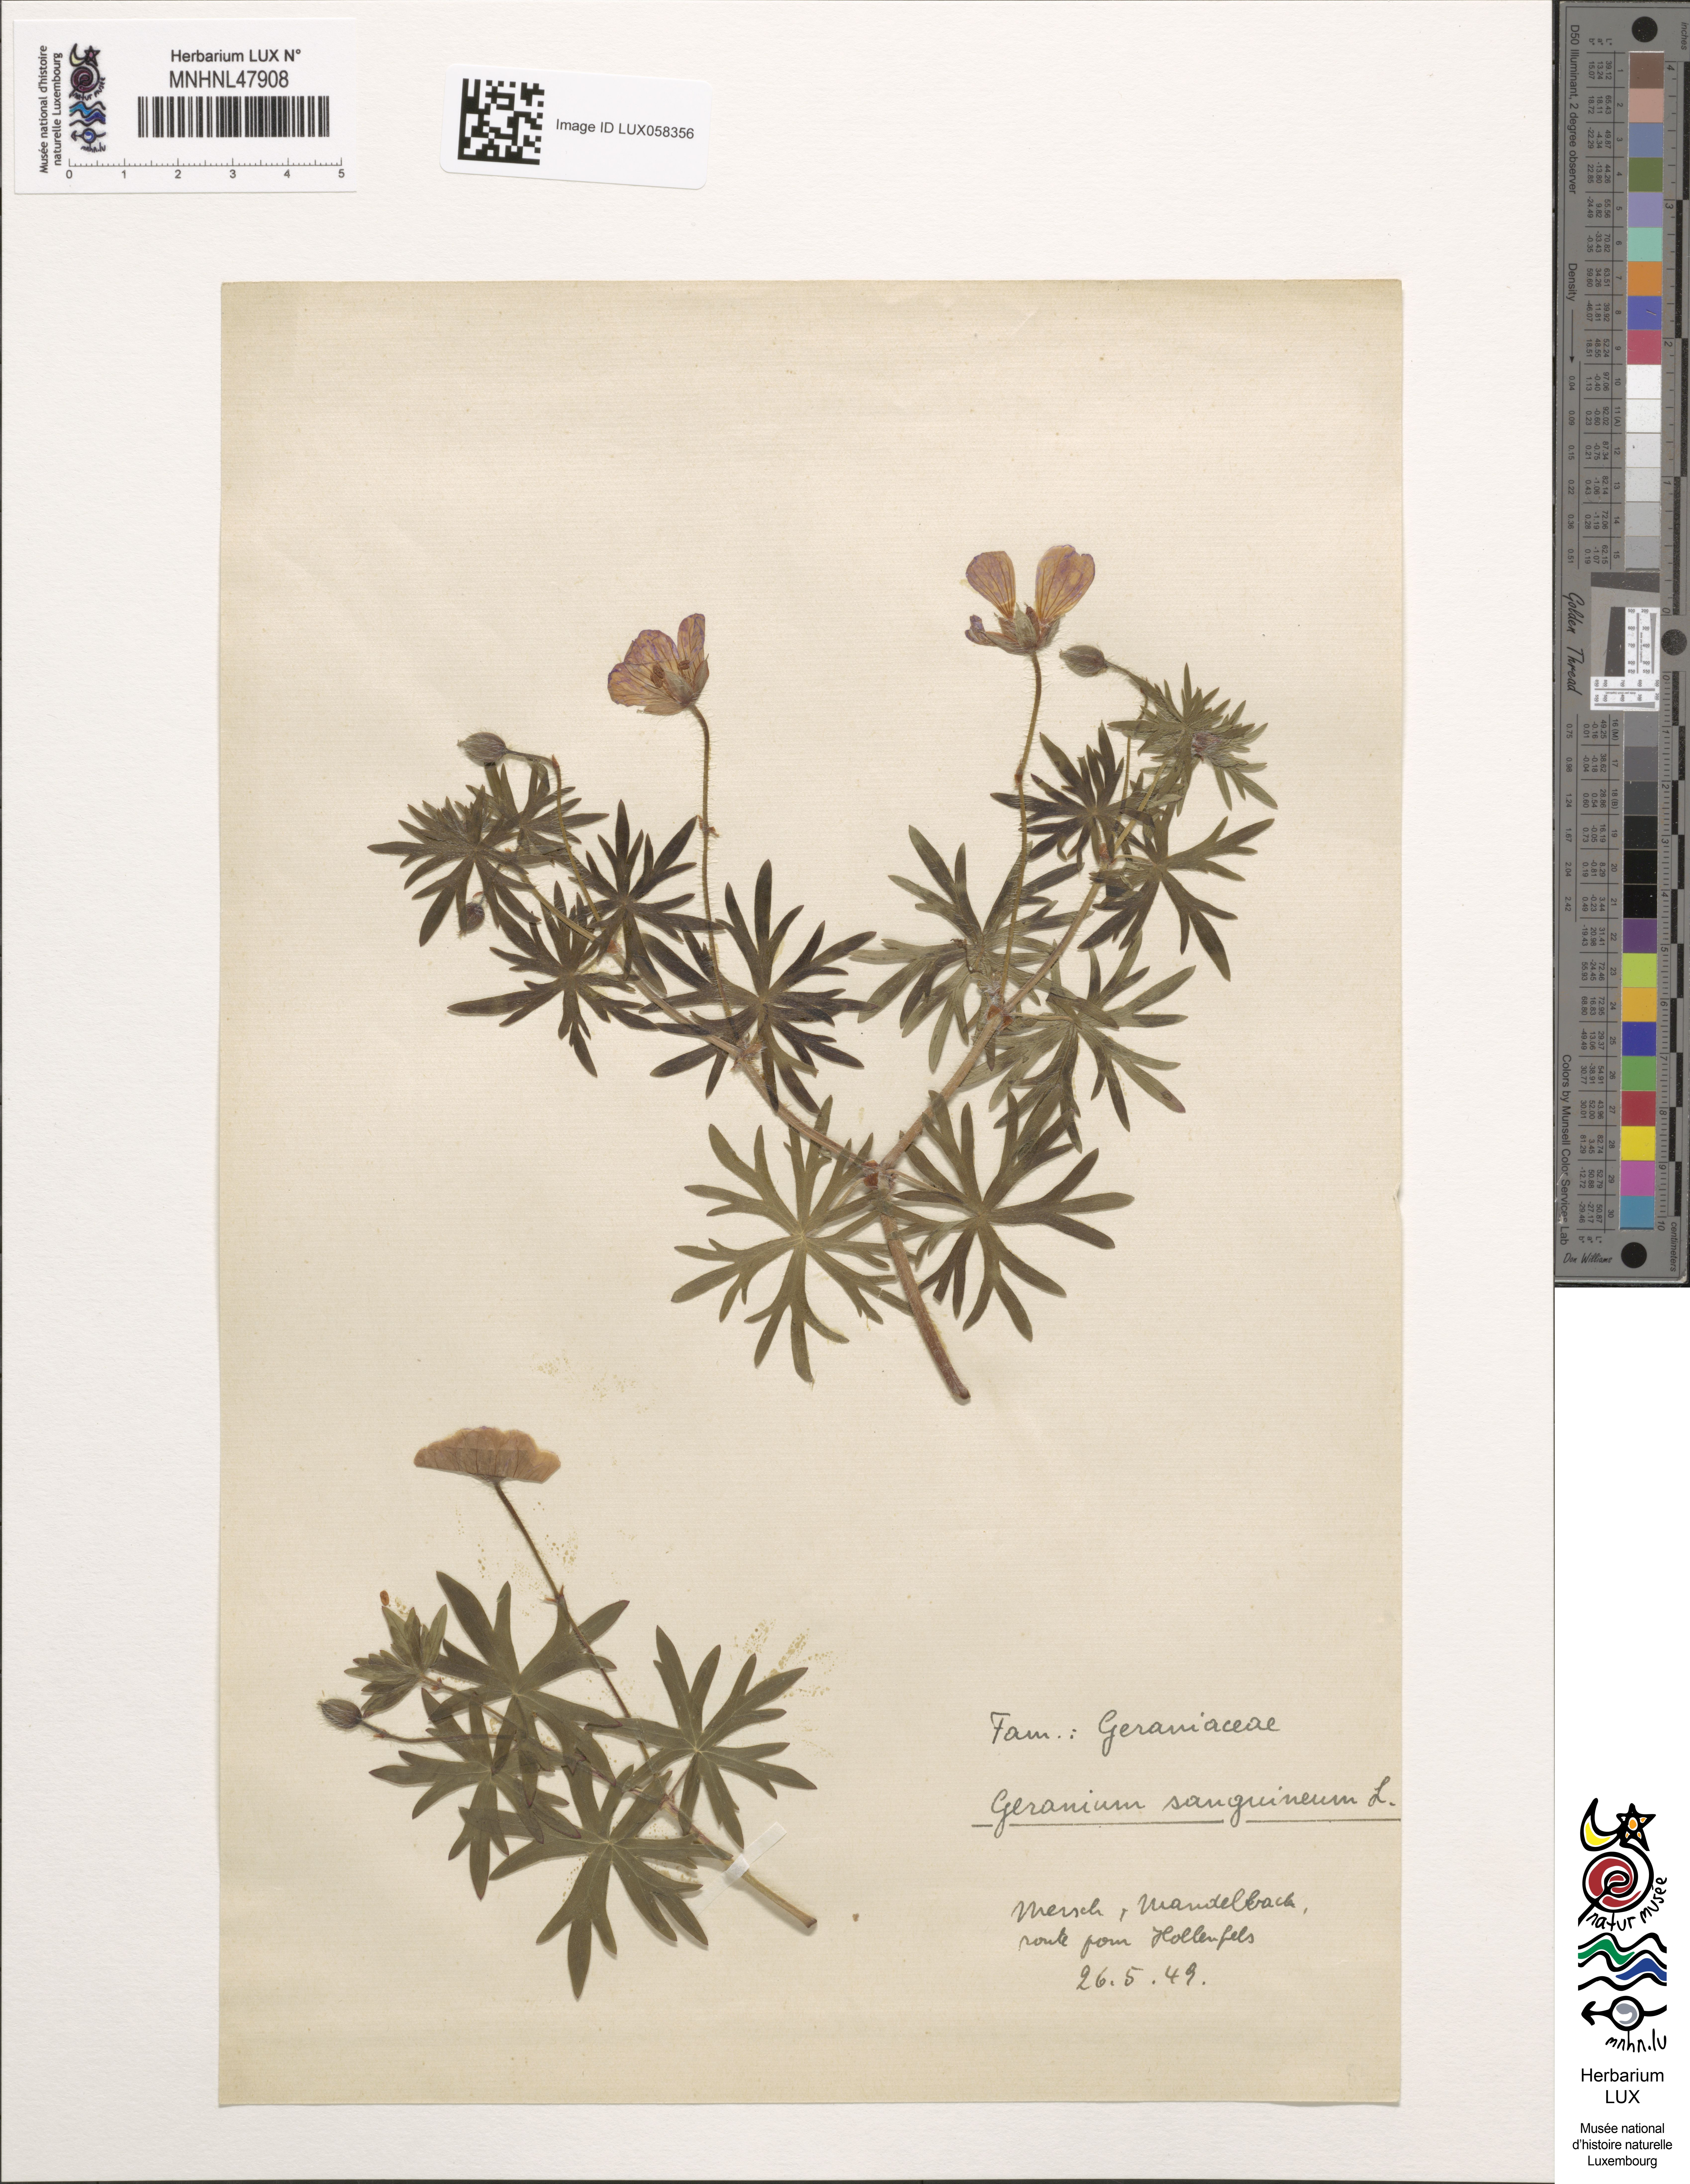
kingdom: Plantae
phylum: Tracheophyta
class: Magnoliopsida
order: Geraniales
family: Geraniaceae
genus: Geranium
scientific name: Geranium sanguineum
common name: Bloody crane's-bill
